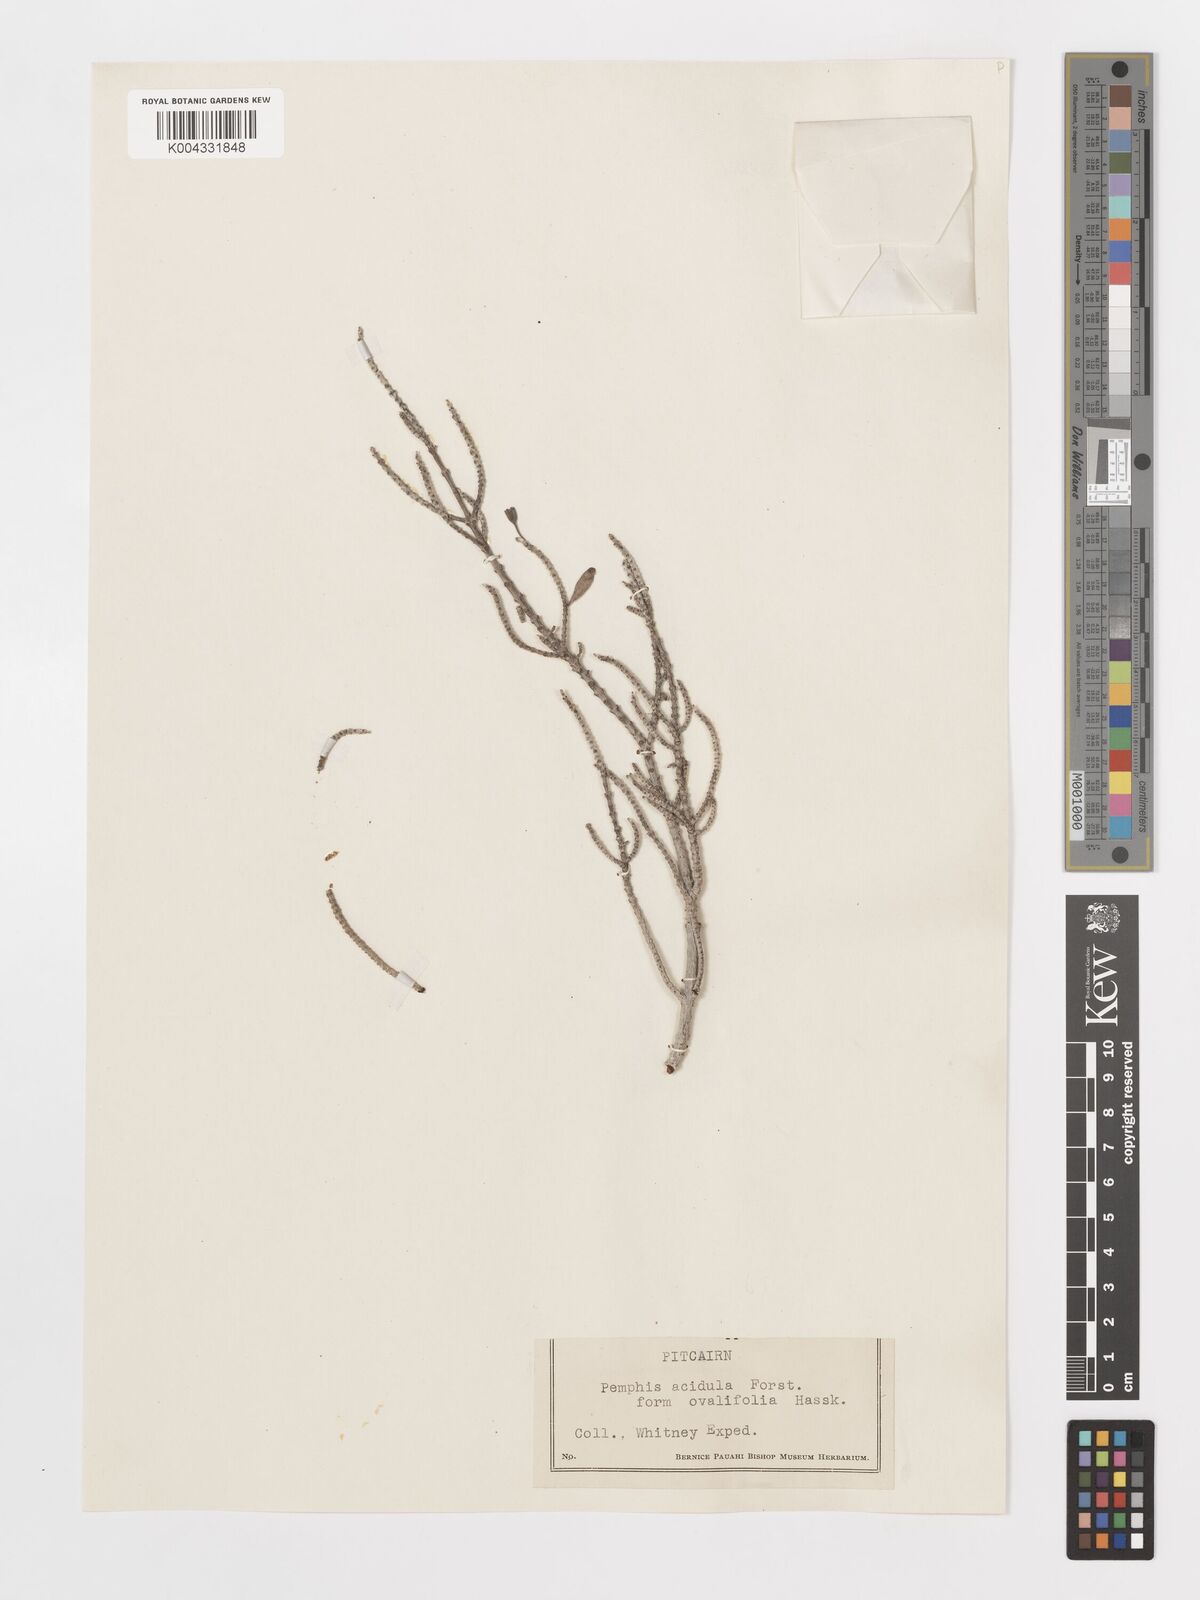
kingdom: Plantae
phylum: Tracheophyta
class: Magnoliopsida
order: Myrtales
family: Lythraceae
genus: Pemphis
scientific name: Pemphis acidula
